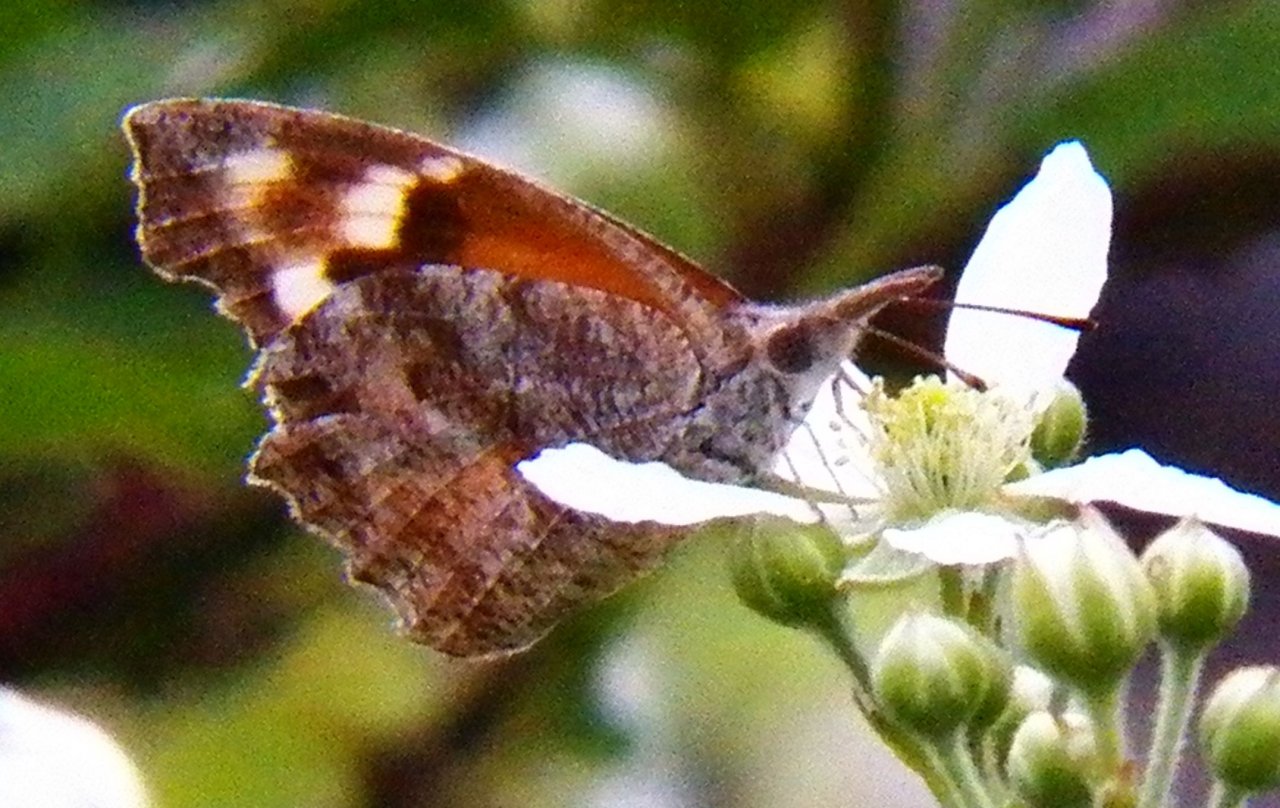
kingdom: Animalia
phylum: Arthropoda
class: Insecta
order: Lepidoptera
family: Nymphalidae
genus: Libytheana
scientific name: Libytheana carinenta
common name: American Snout
